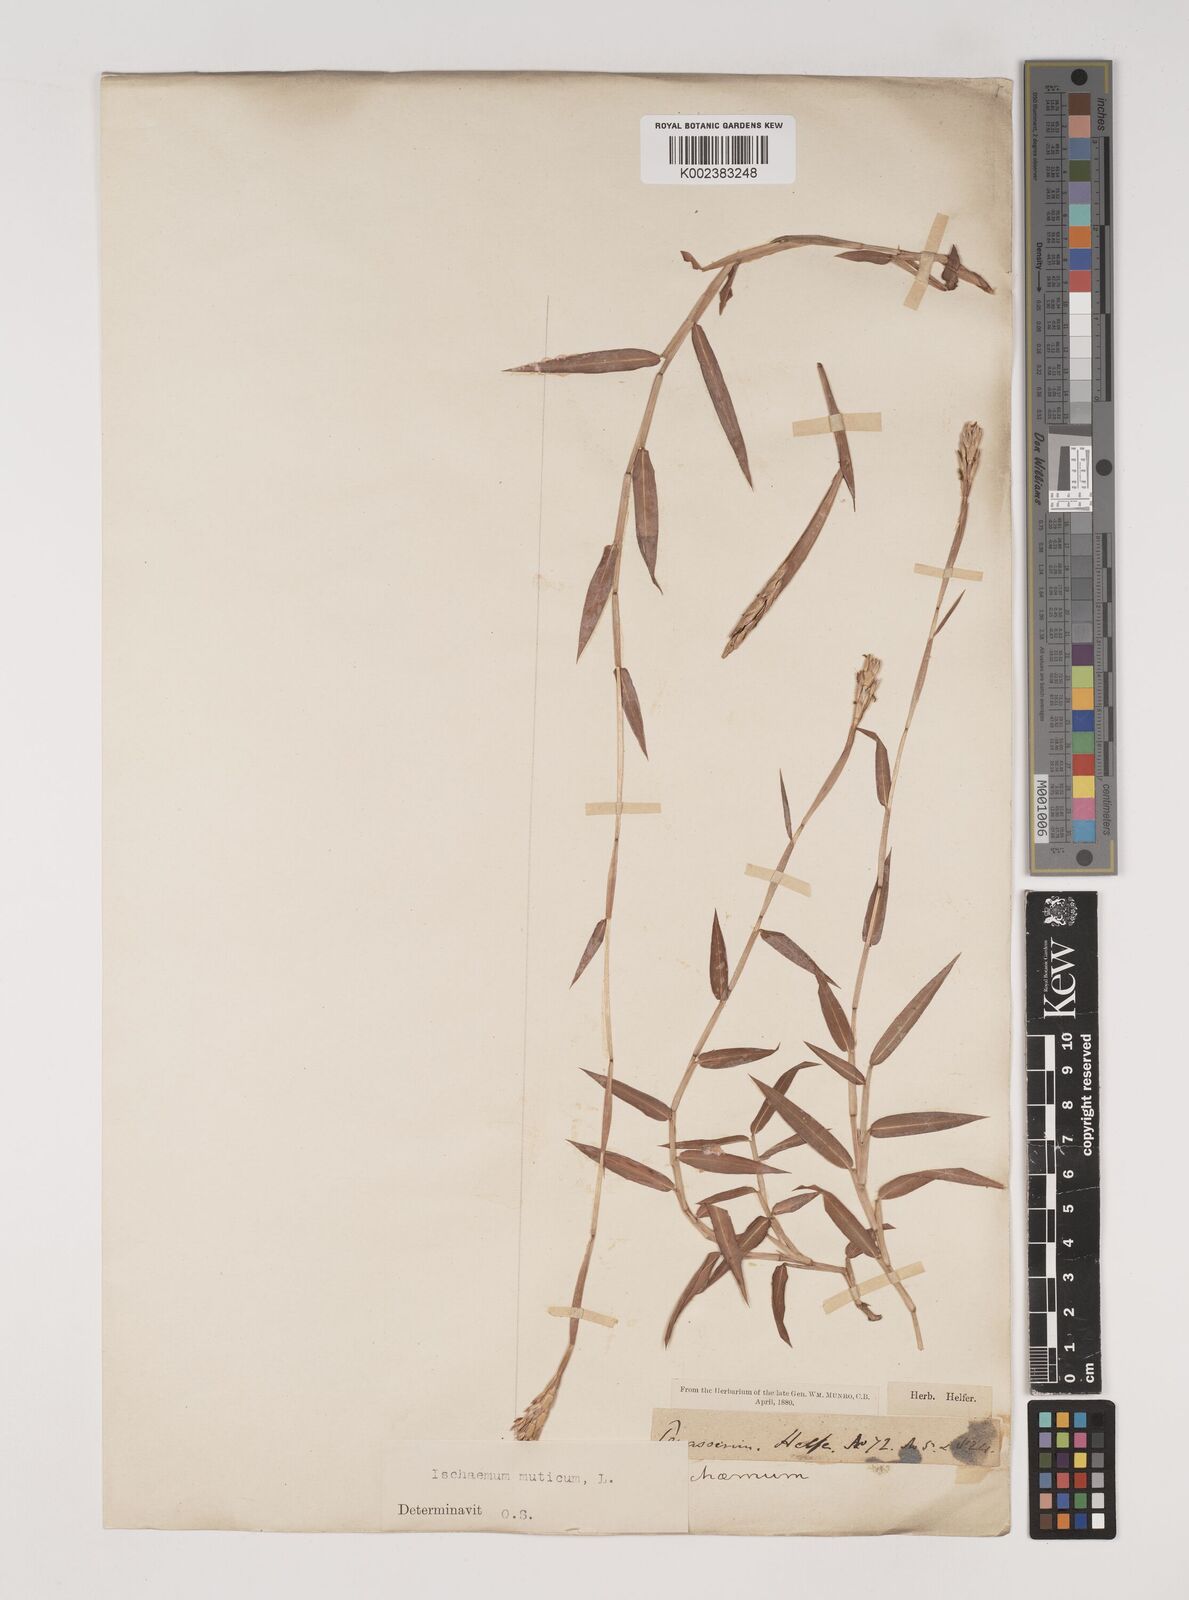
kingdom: Plantae
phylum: Tracheophyta
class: Liliopsida
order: Poales
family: Poaceae
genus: Ischaemum
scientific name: Ischaemum muticum
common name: Drought grass
